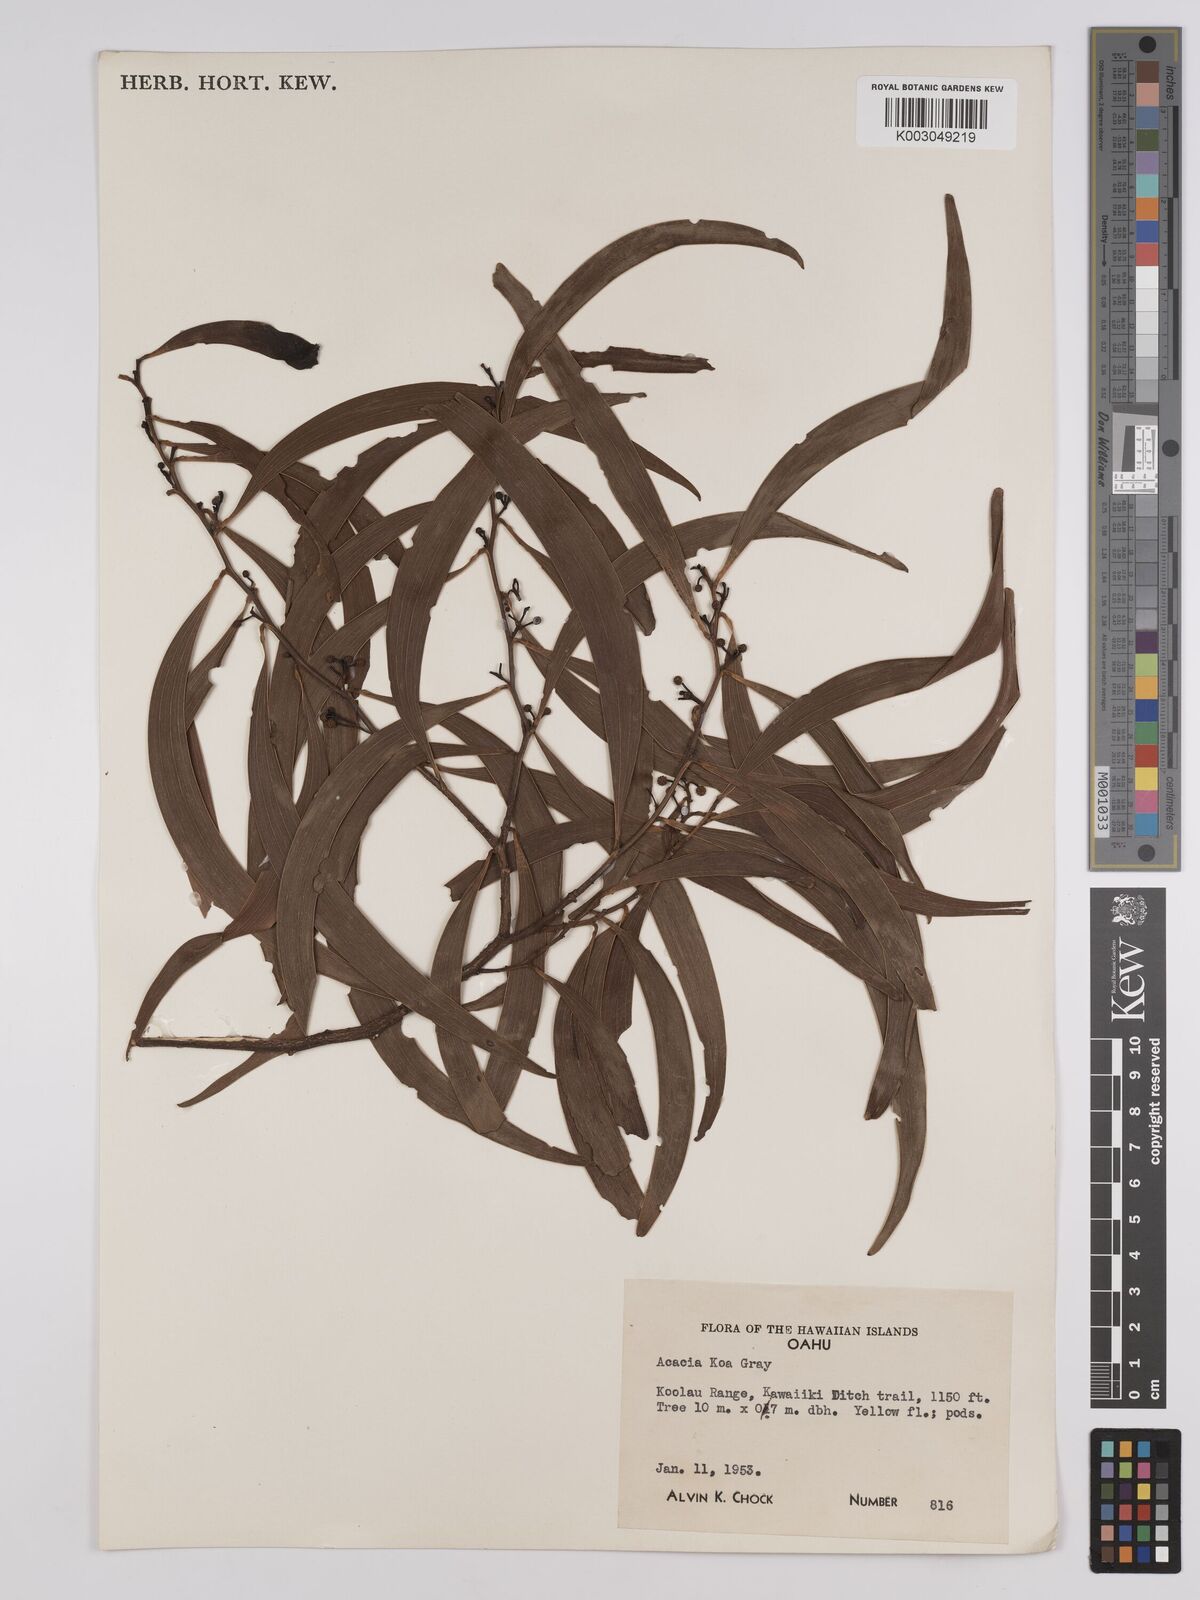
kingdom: Plantae
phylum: Tracheophyta
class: Magnoliopsida
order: Fabales
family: Fabaceae
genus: Acacia
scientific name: Acacia koa
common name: Gray koa
